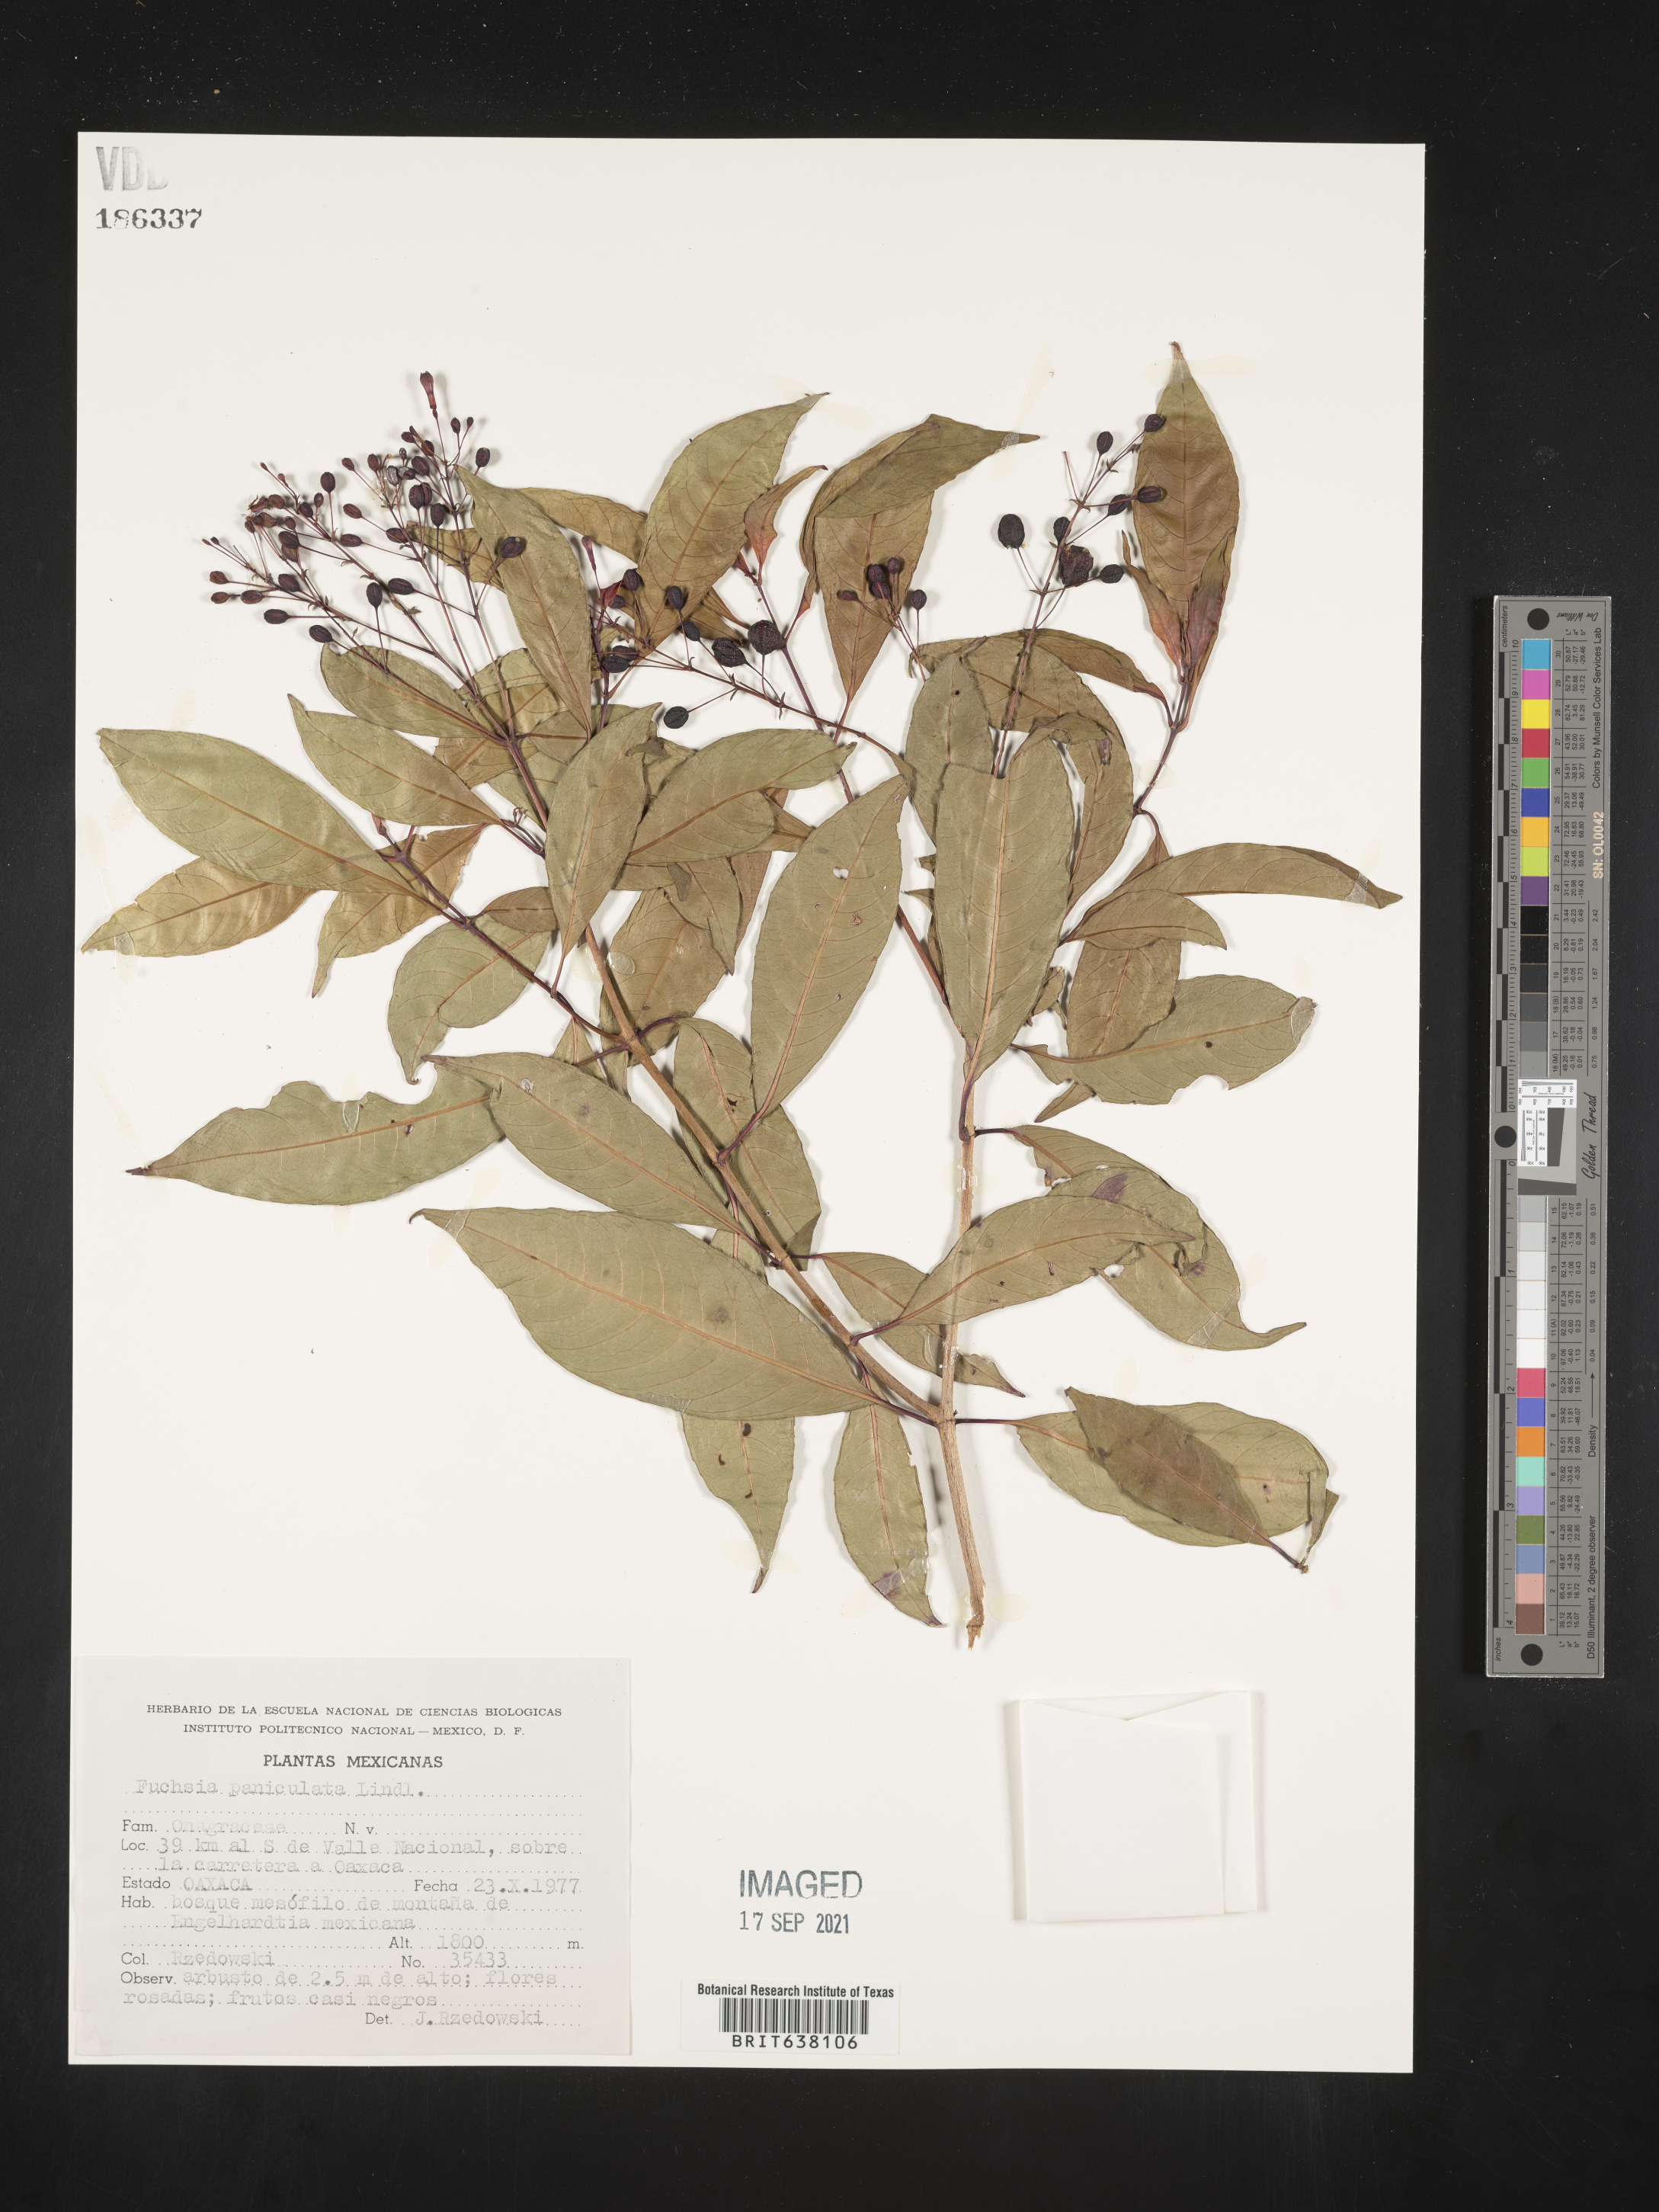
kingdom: Plantae
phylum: Tracheophyta
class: Magnoliopsida
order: Myrtales
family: Onagraceae
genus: Fuchsia
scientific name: Fuchsia
